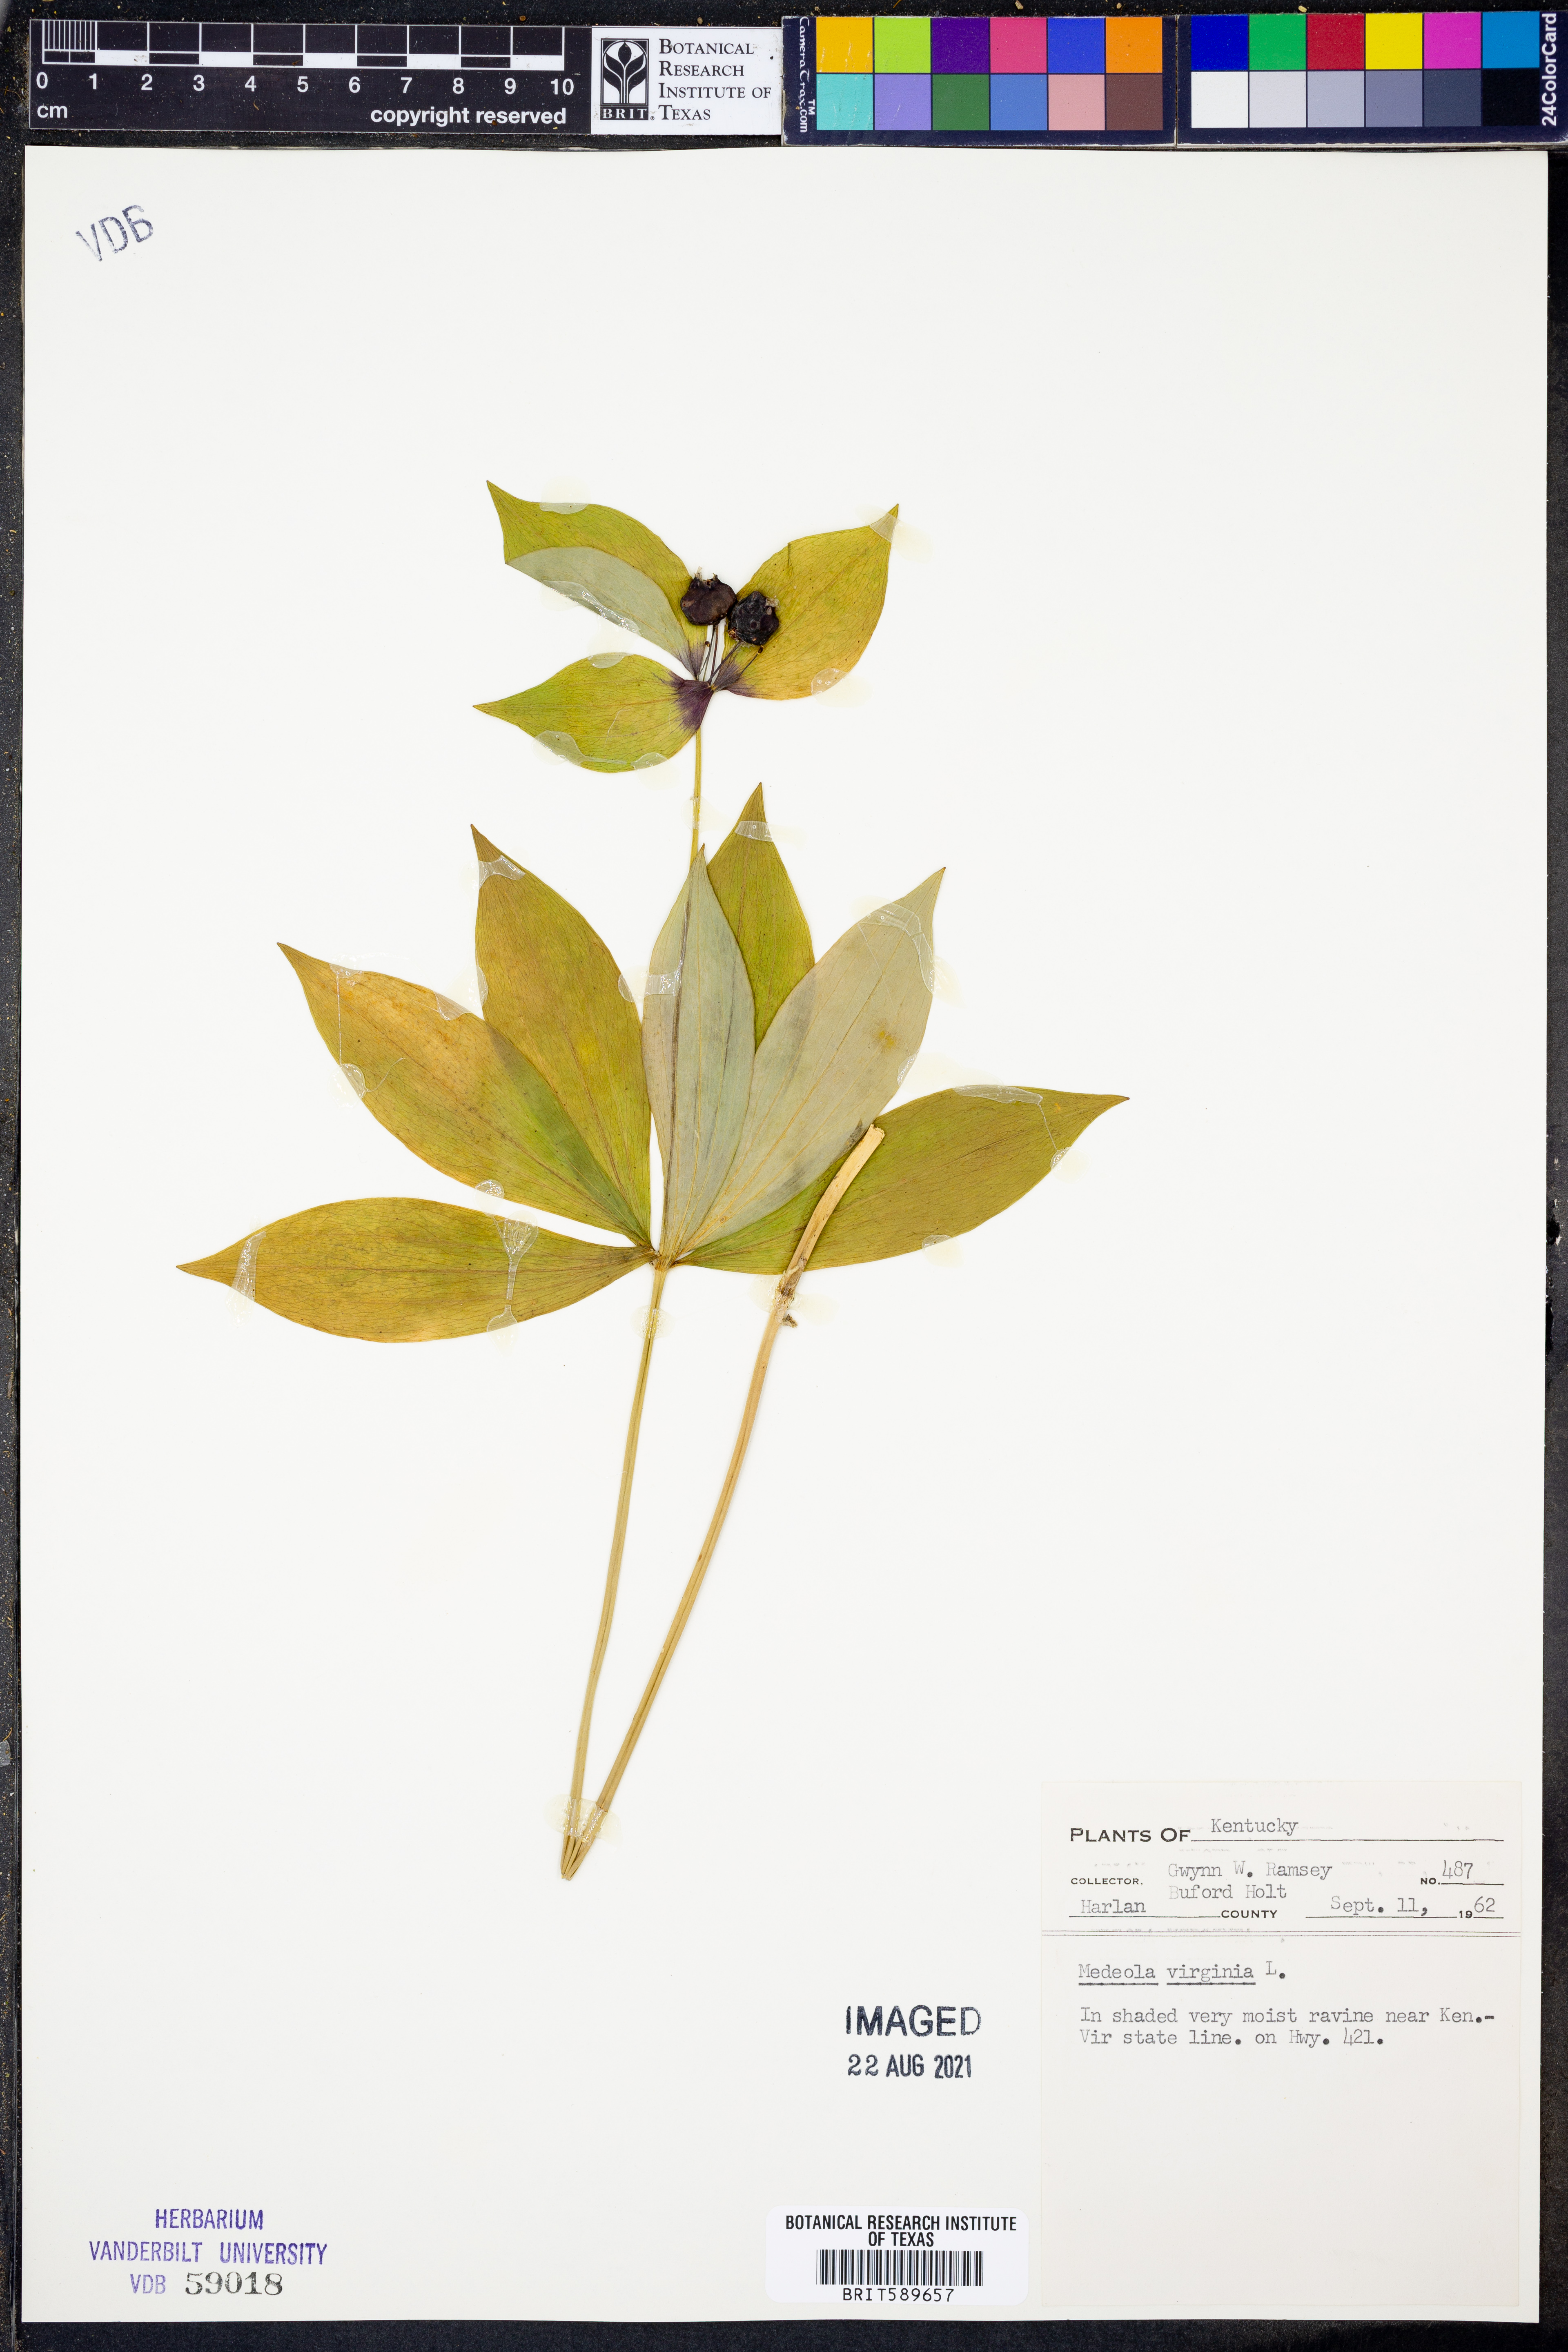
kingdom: Plantae
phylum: Tracheophyta
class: Liliopsida
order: Liliales
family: Liliaceae
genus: Medeola
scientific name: Medeola virginiana
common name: Indian cucumber-root
